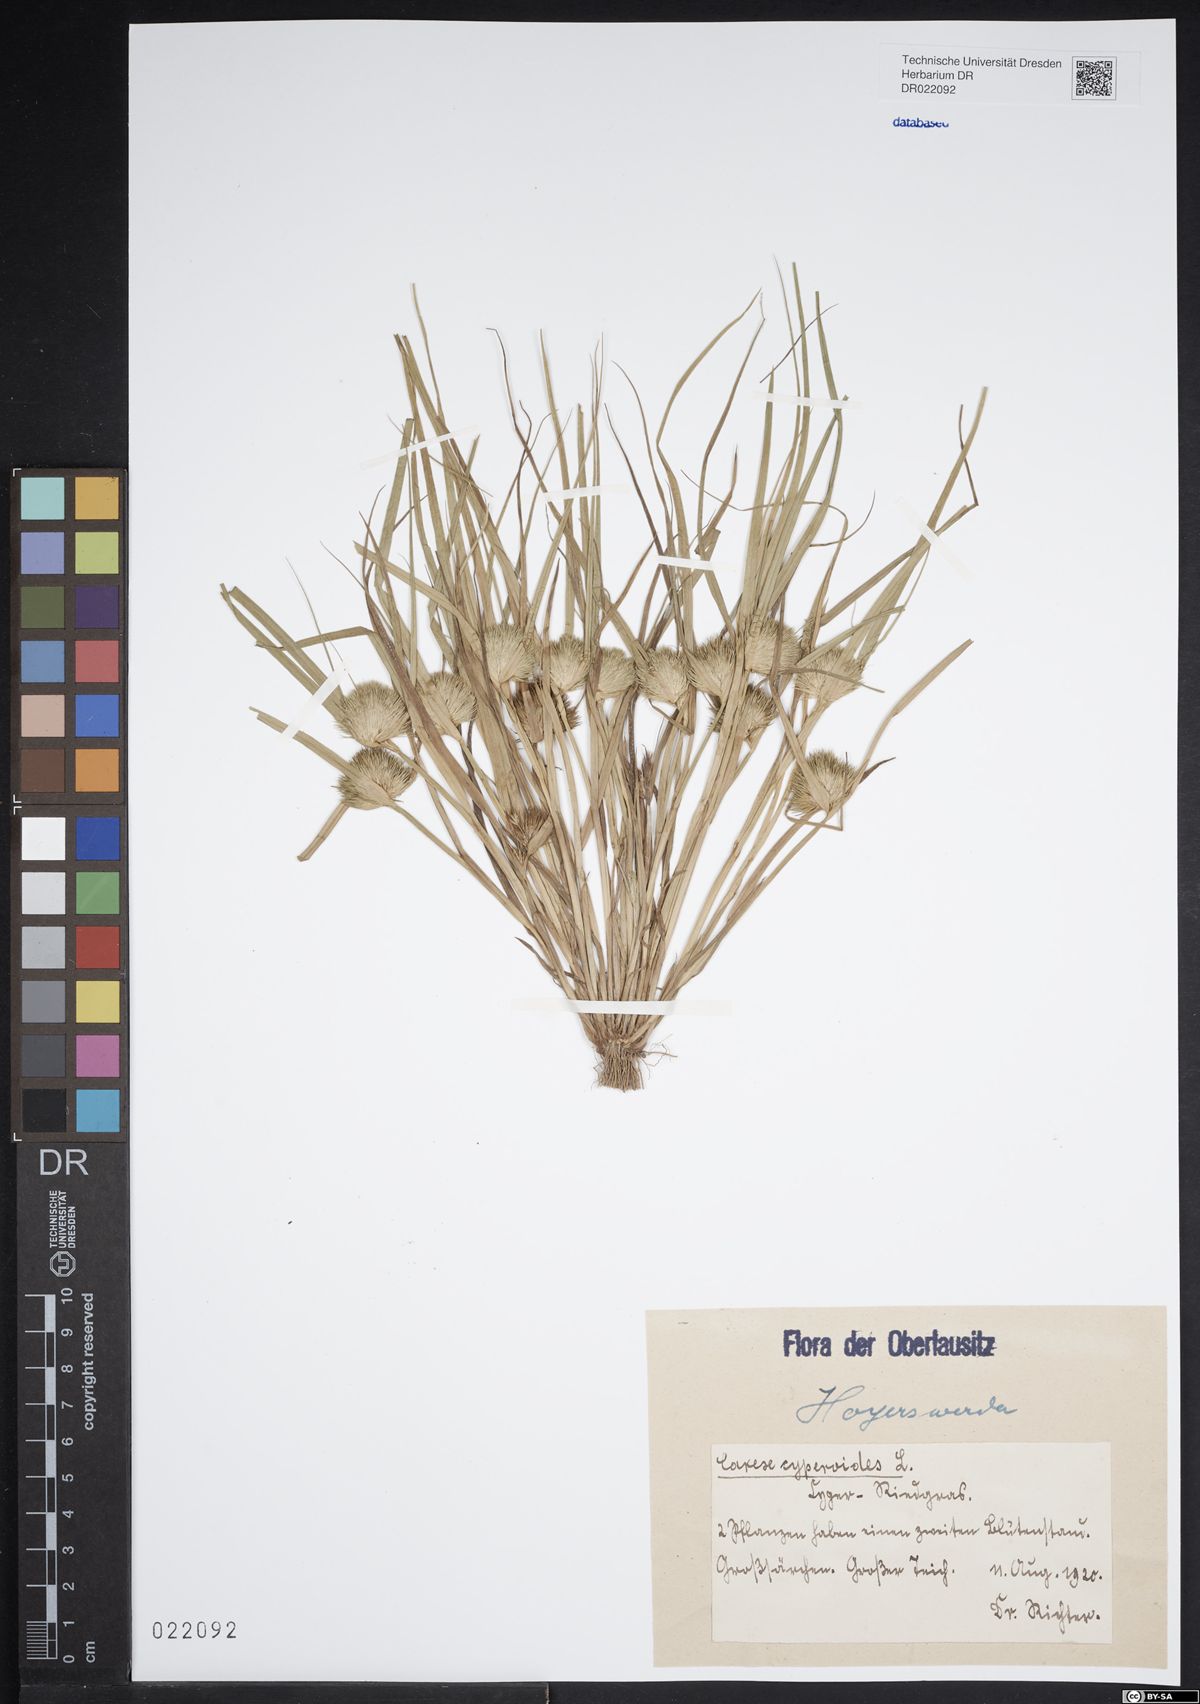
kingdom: Plantae
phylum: Tracheophyta
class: Liliopsida
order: Poales
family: Cyperaceae
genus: Carex
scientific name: Carex bohemica
